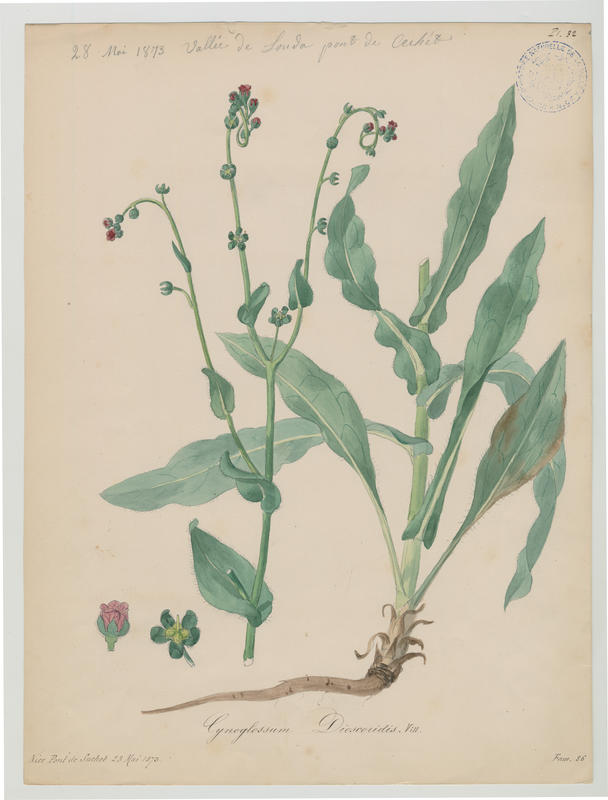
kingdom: Plantae
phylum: Tracheophyta
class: Magnoliopsida
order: Boraginales
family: Boraginaceae
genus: Cynoglossum
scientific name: Cynoglossum dioscoridis
